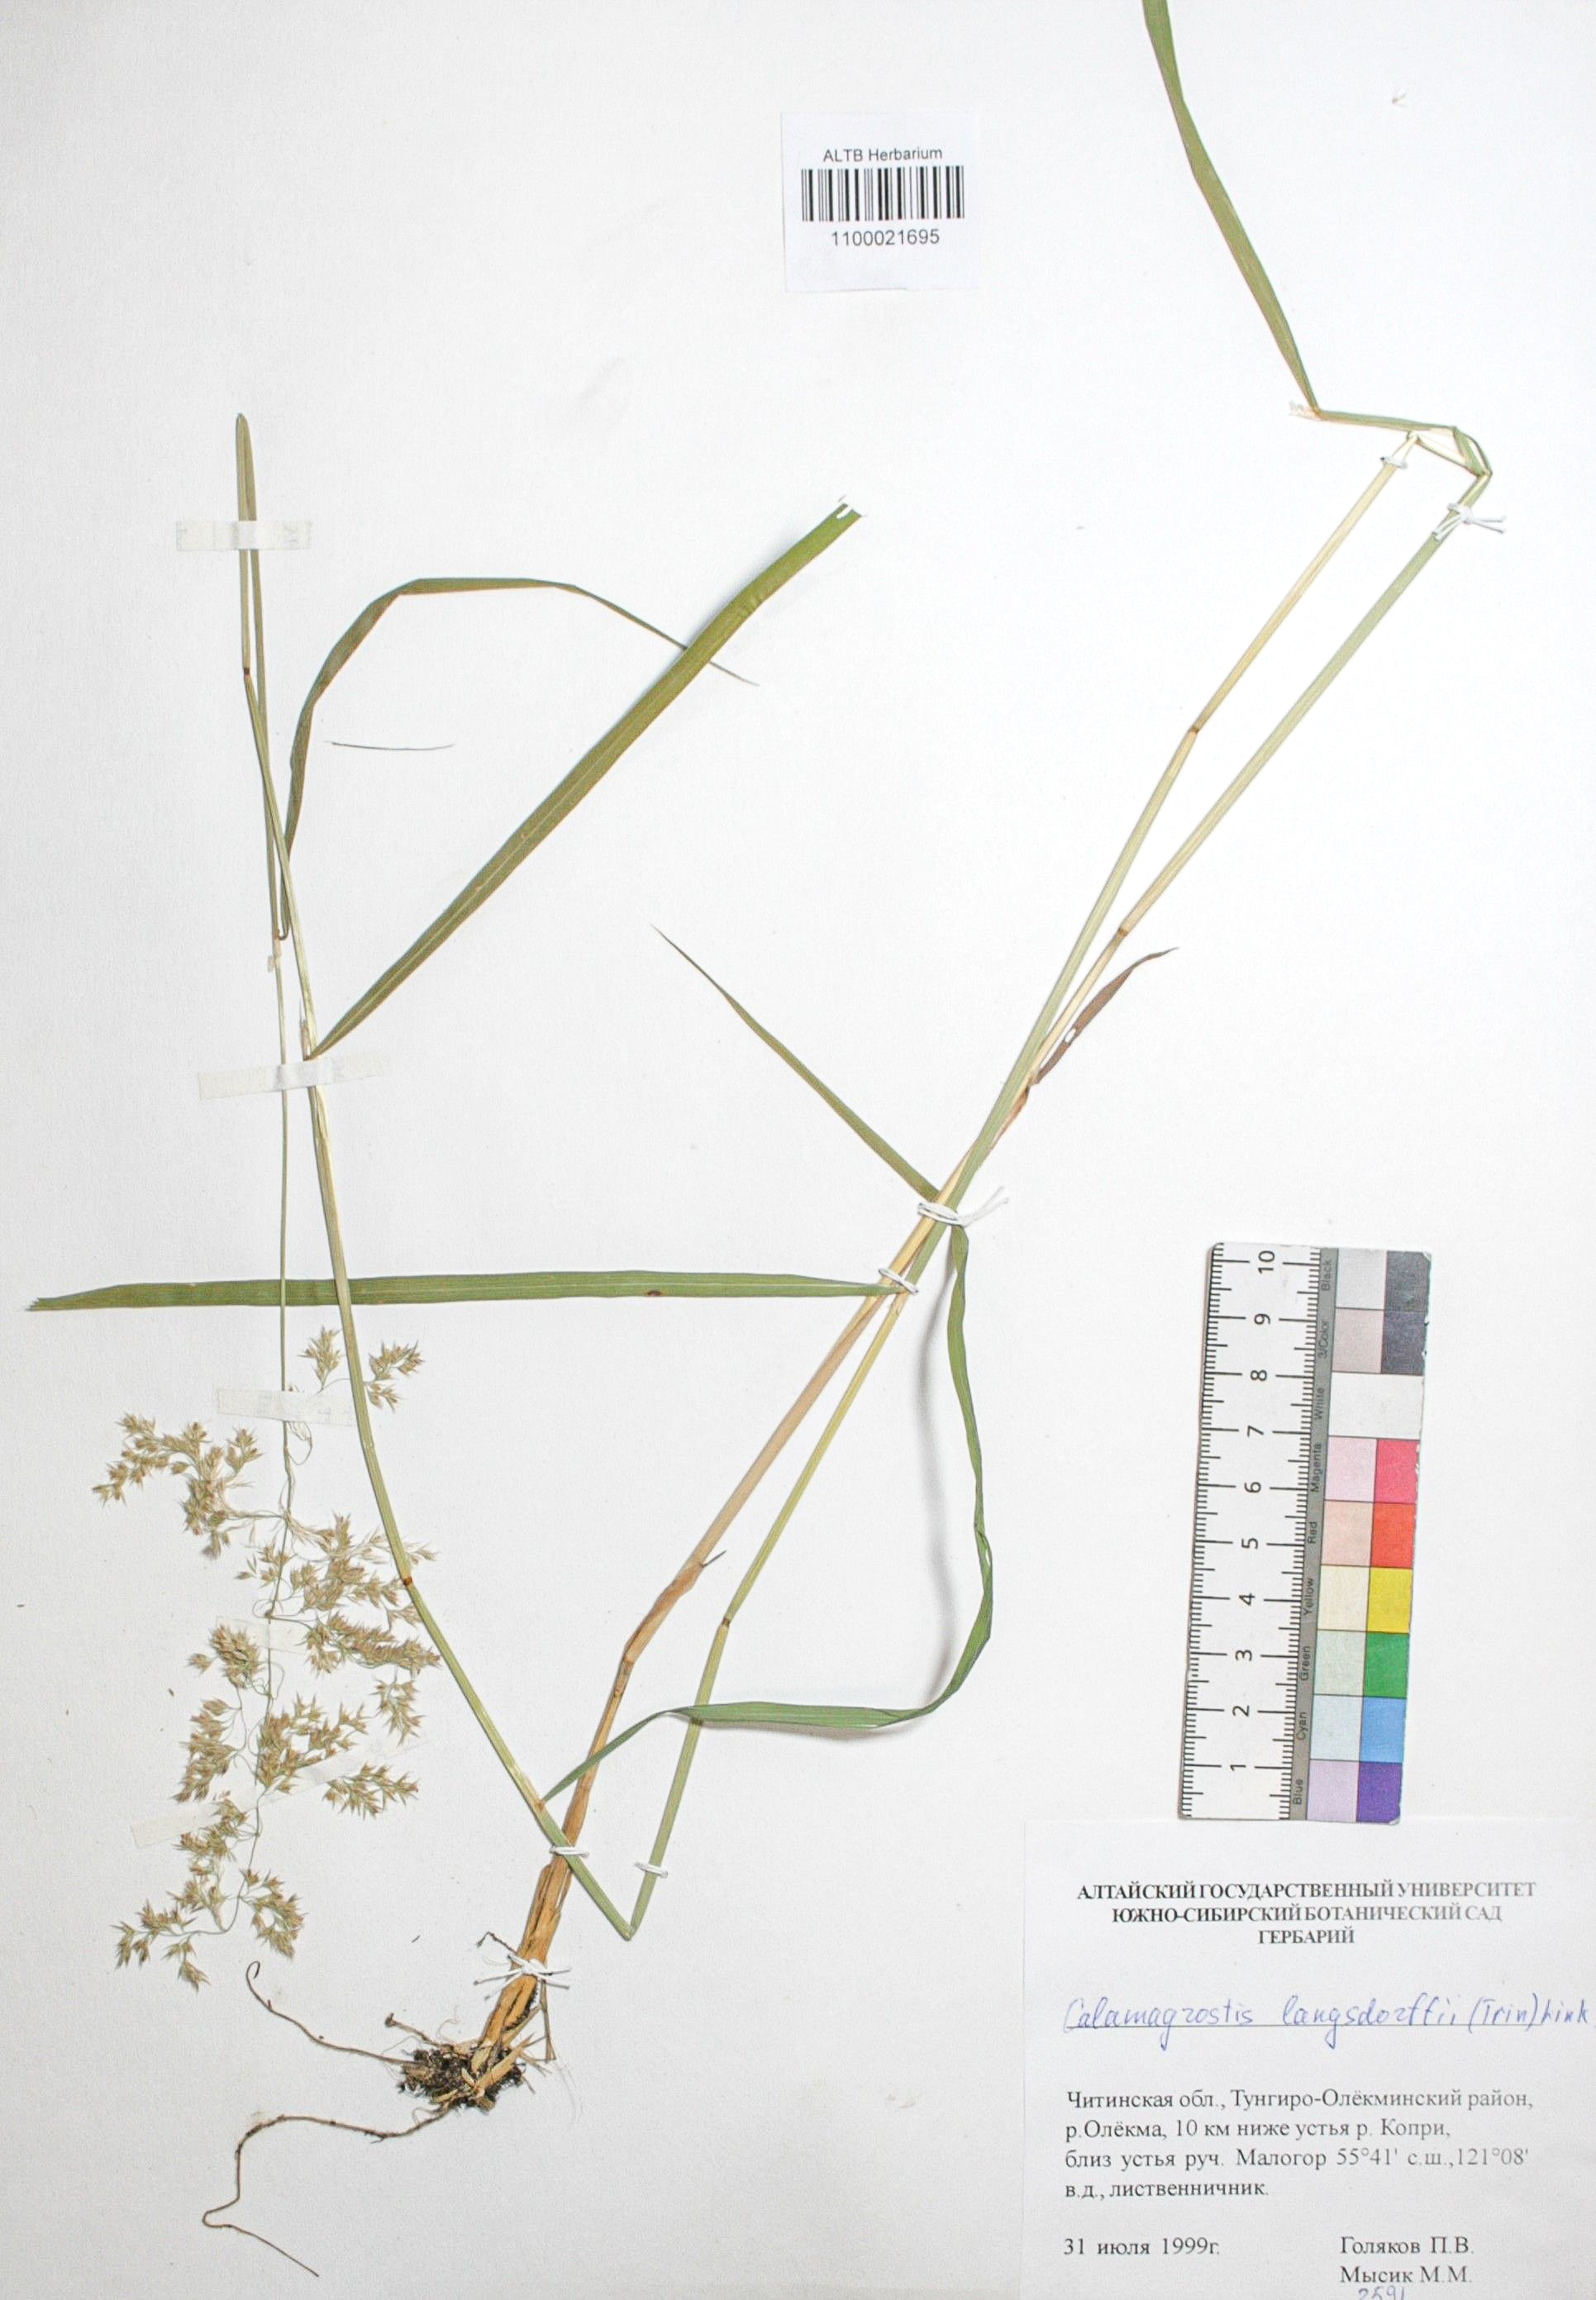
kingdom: Plantae
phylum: Tracheophyta
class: Liliopsida
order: Poales
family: Poaceae
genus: Calamagrostis
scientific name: Calamagrostis purpurea
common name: Scandinavian small-reed
